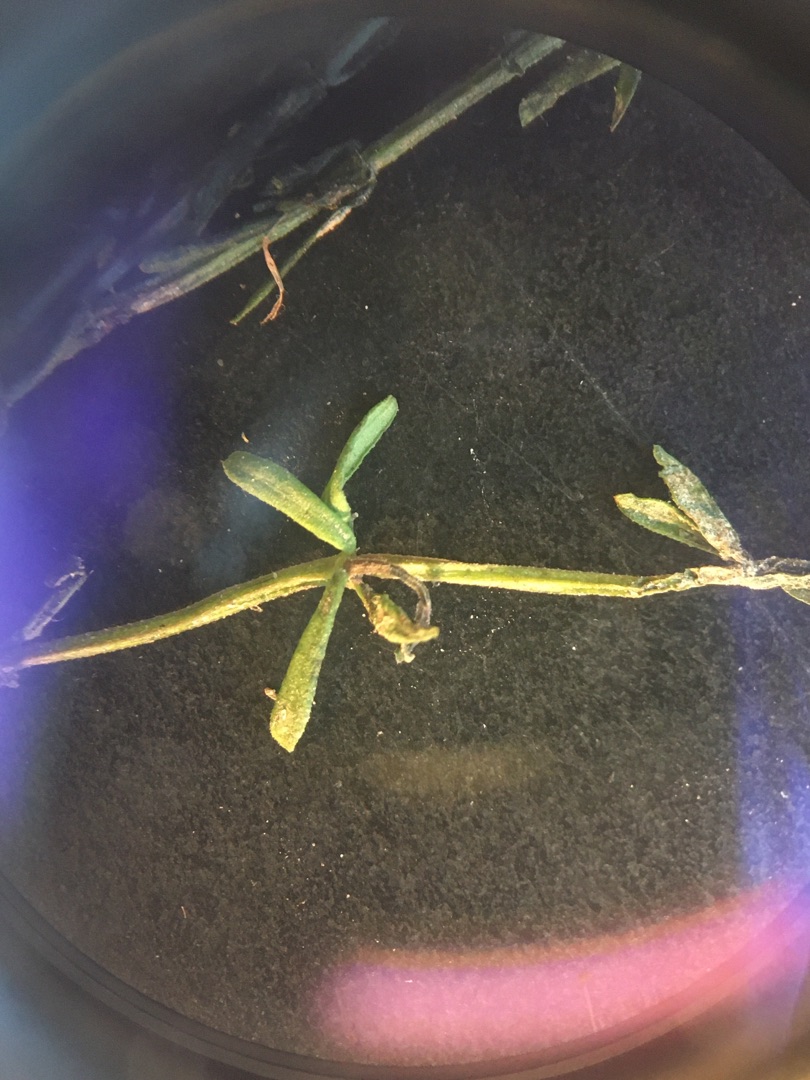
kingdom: Plantae
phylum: Tracheophyta
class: Magnoliopsida
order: Gentianales
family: Rubiaceae
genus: Galium
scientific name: Galium palustre
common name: Kær-snerre
